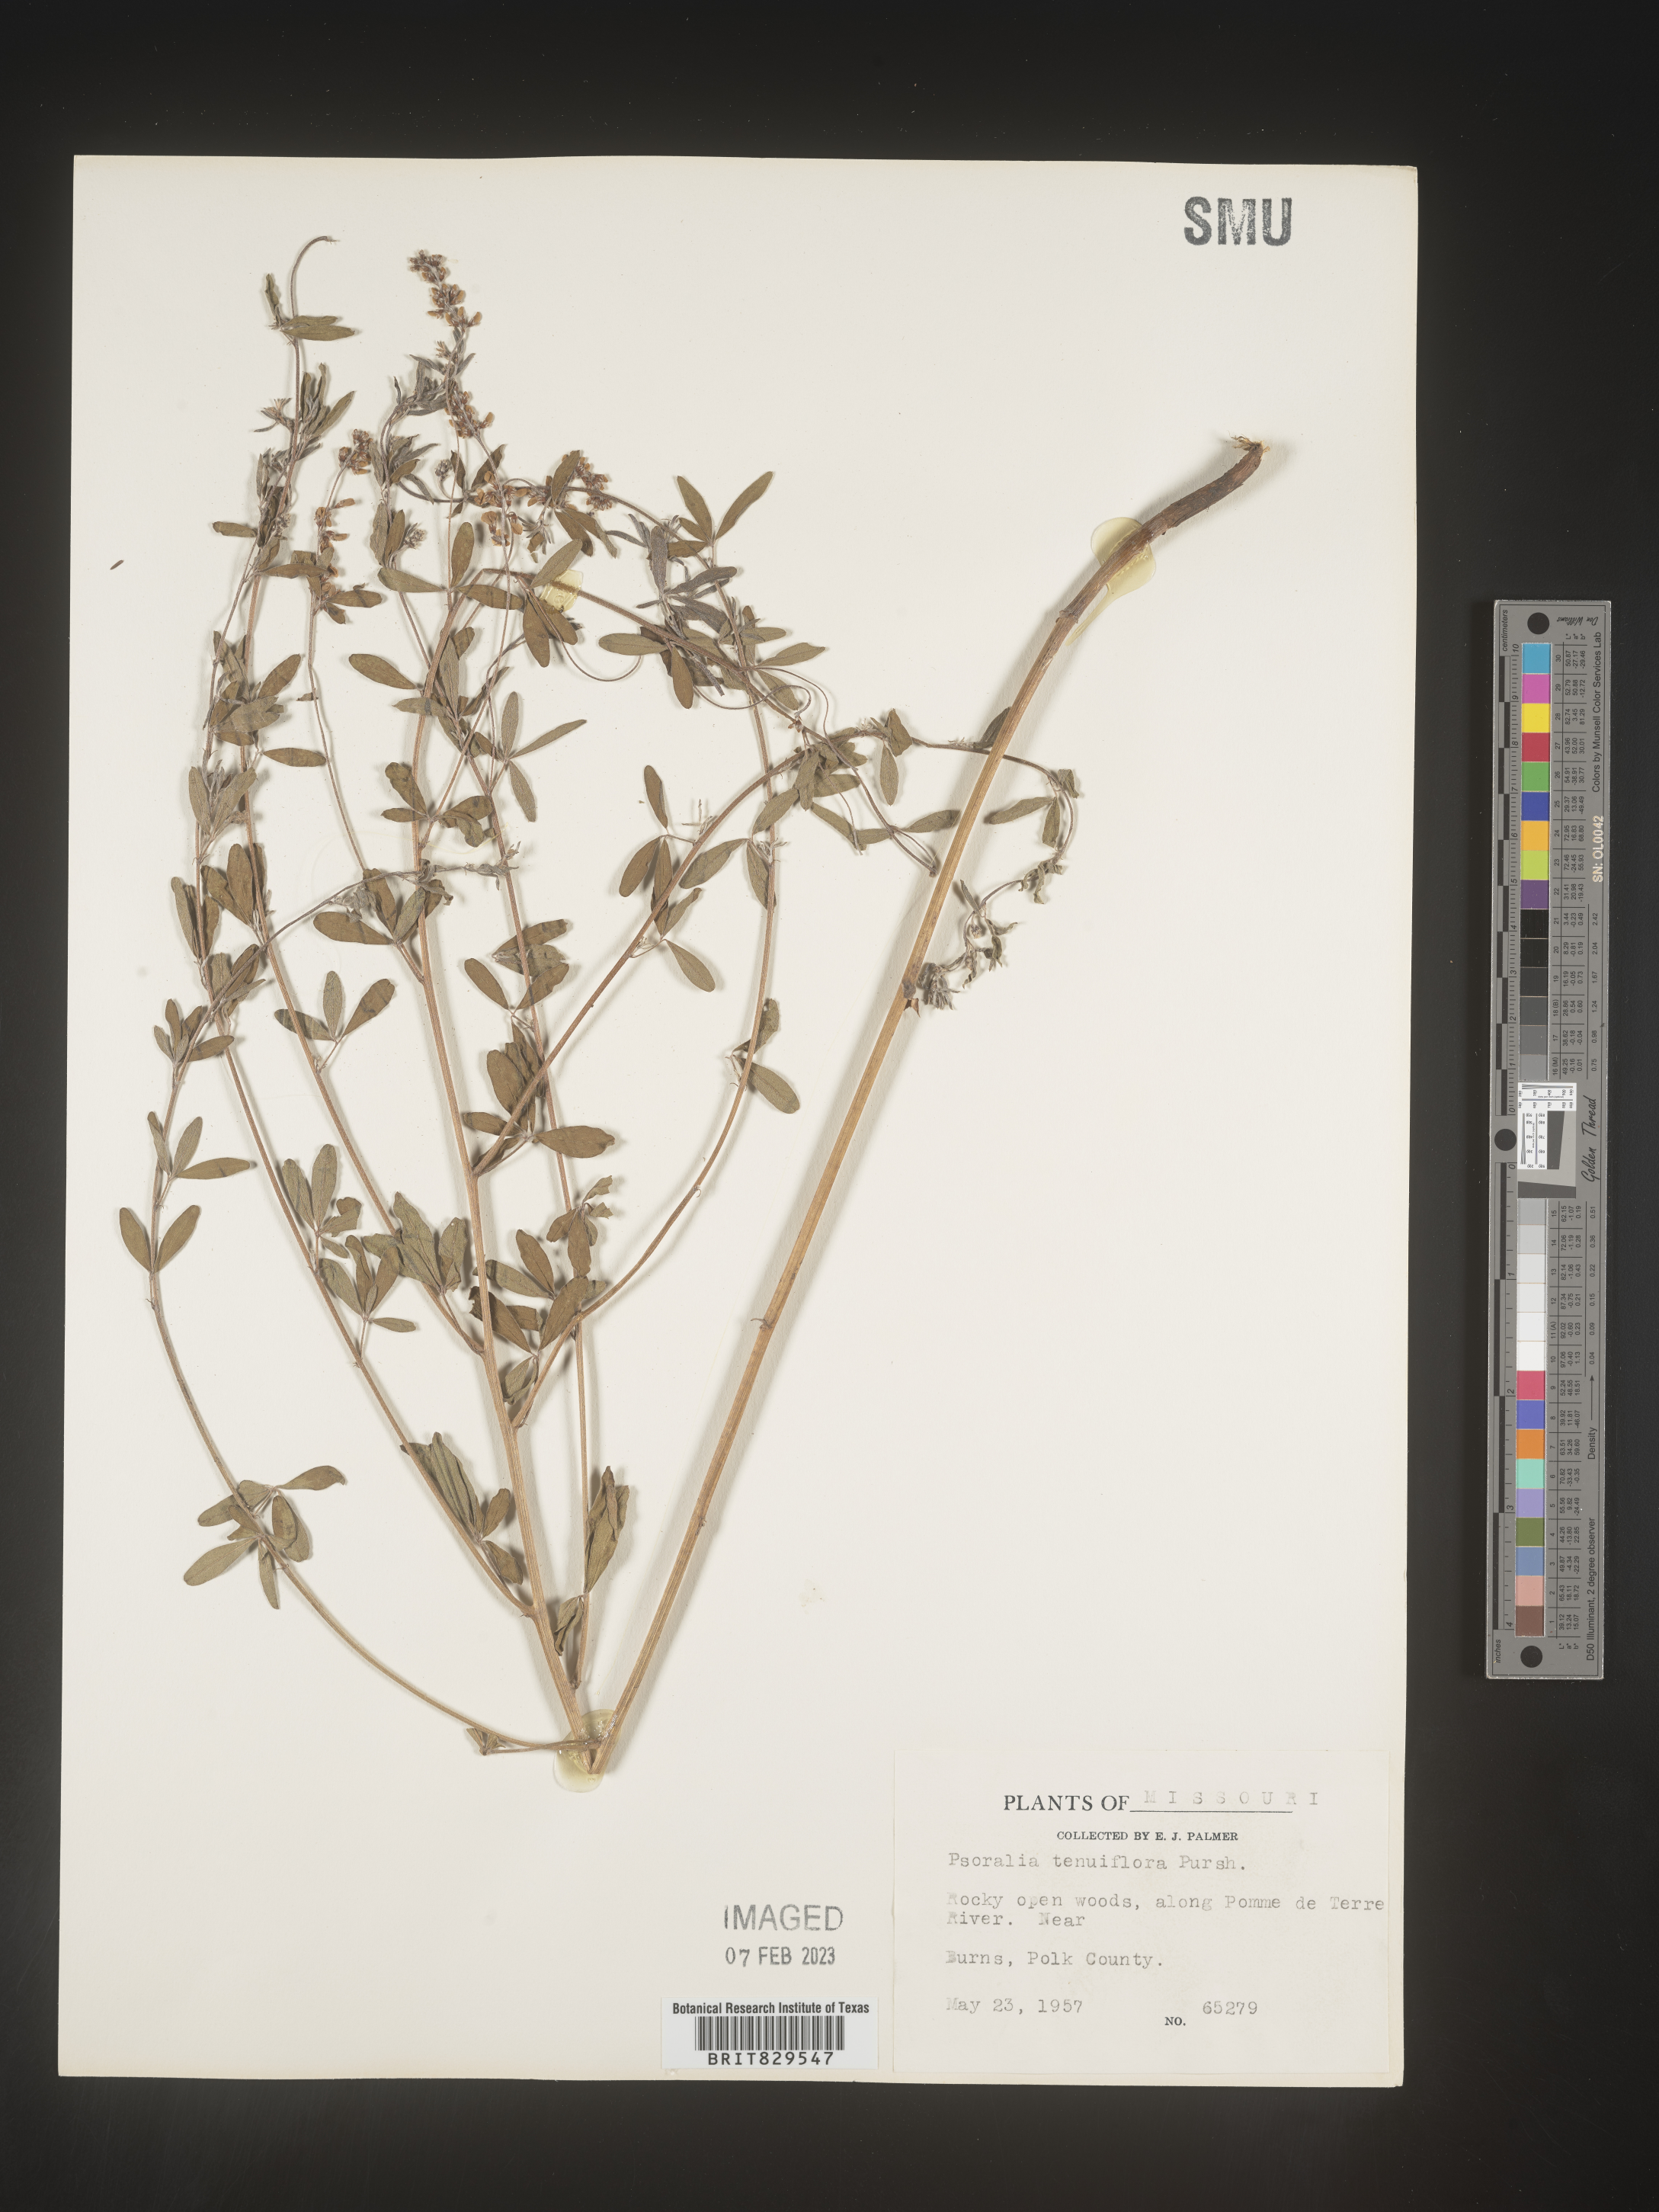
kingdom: Plantae
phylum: Tracheophyta
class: Magnoliopsida
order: Fabales
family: Fabaceae
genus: Pediomelum
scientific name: Pediomelum tenuiflorum
